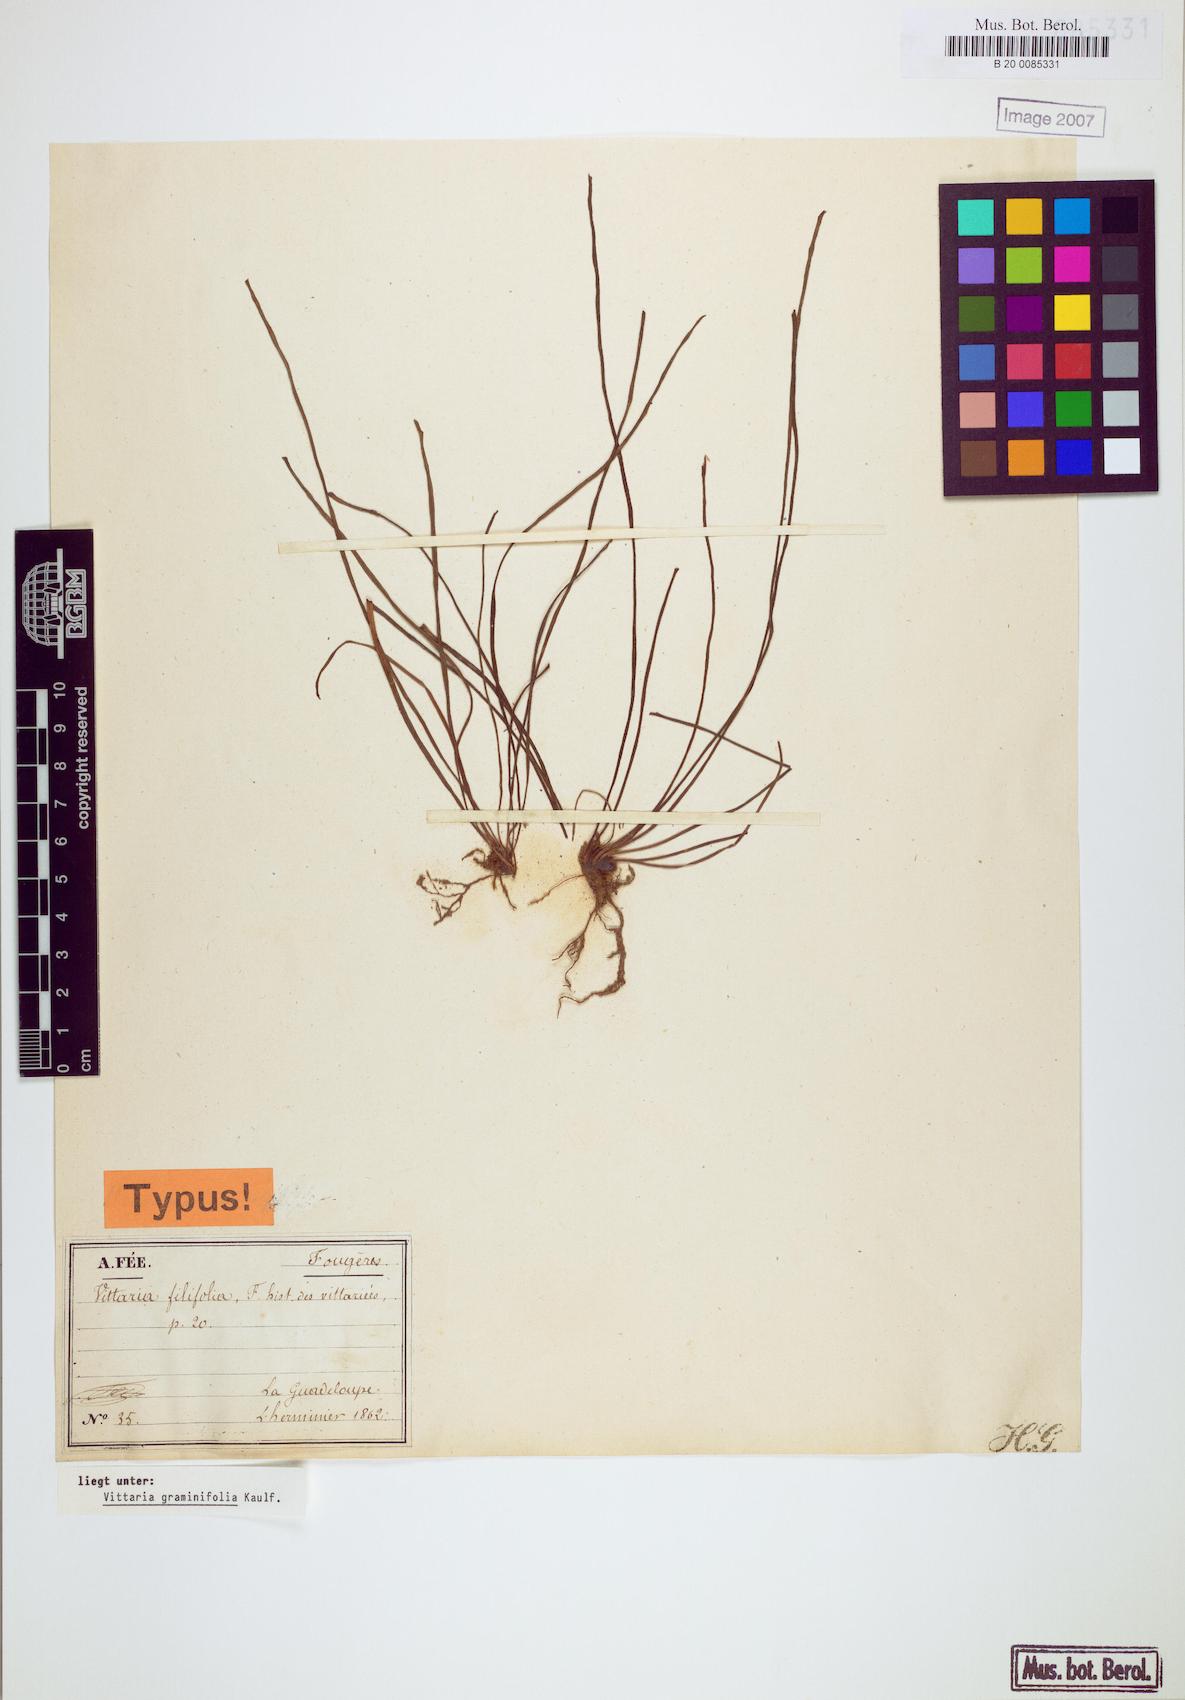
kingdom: Plantae
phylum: Tracheophyta
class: Polypodiopsida
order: Polypodiales
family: Pteridaceae
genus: Vittaria
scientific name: Vittaria graminifolia
